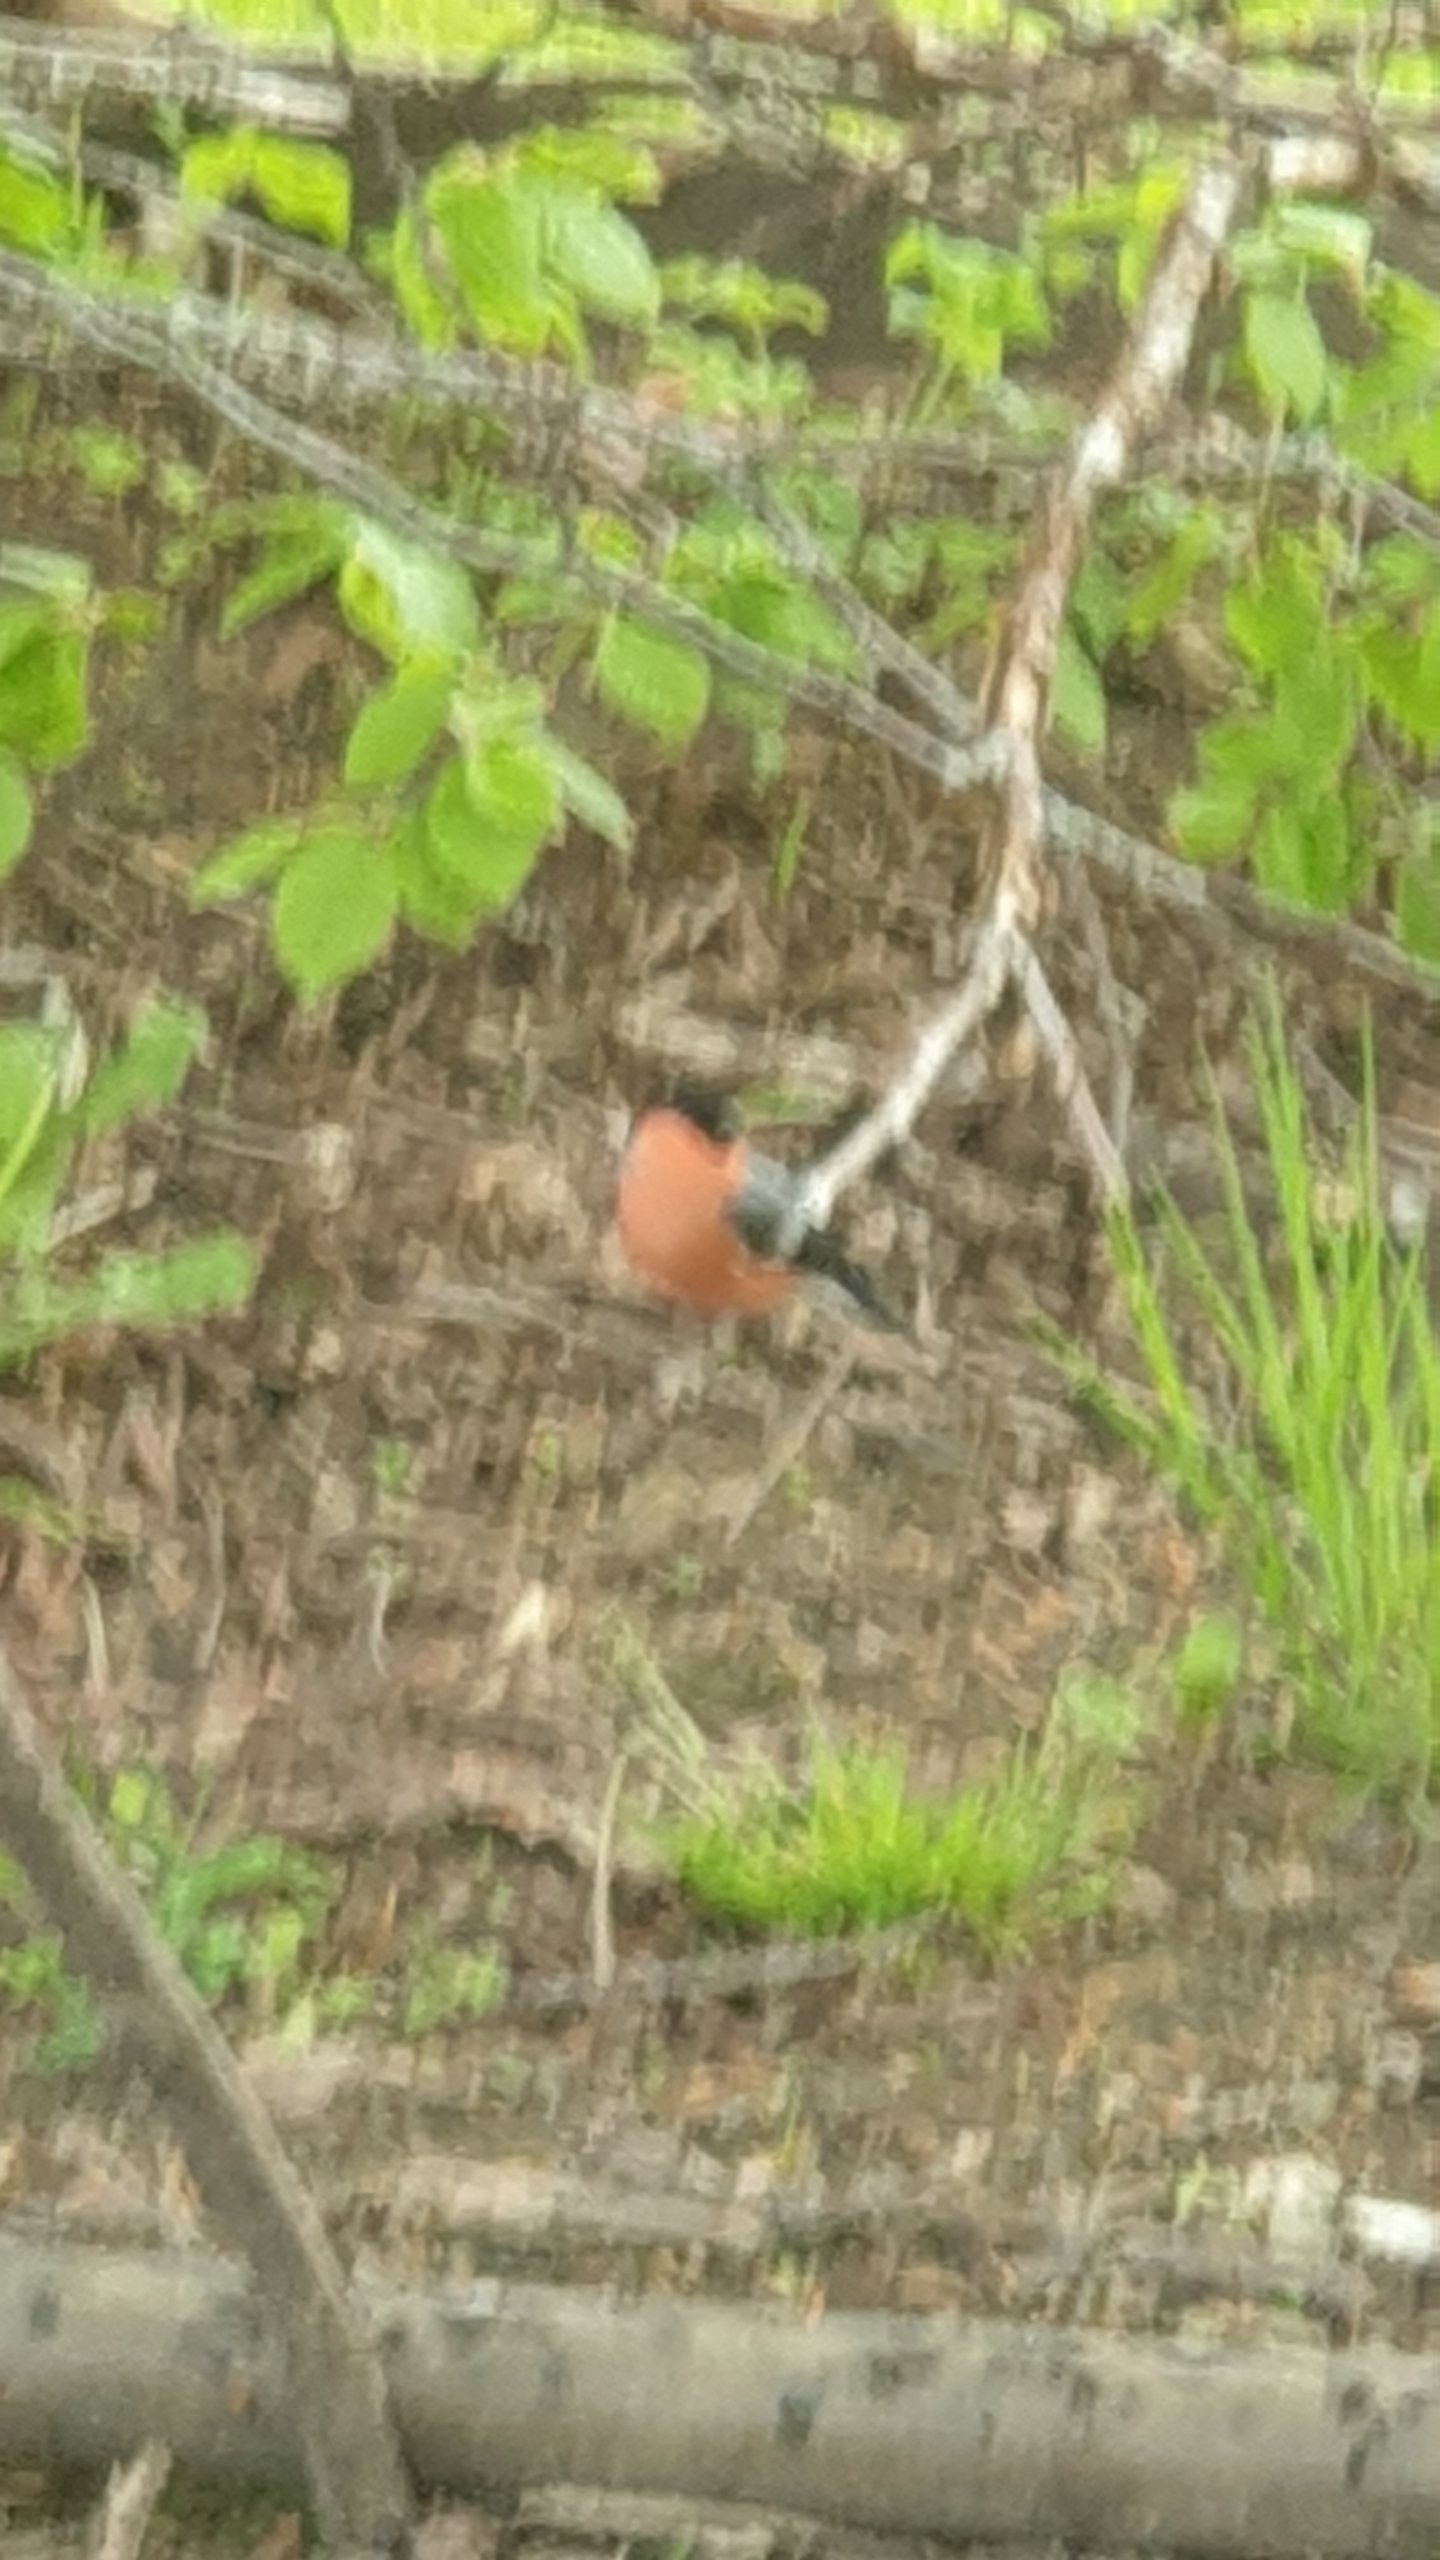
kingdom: Animalia
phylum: Chordata
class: Aves
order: Passeriformes
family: Fringillidae
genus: Pyrrhula
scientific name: Pyrrhula pyrrhula
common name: Dompap
